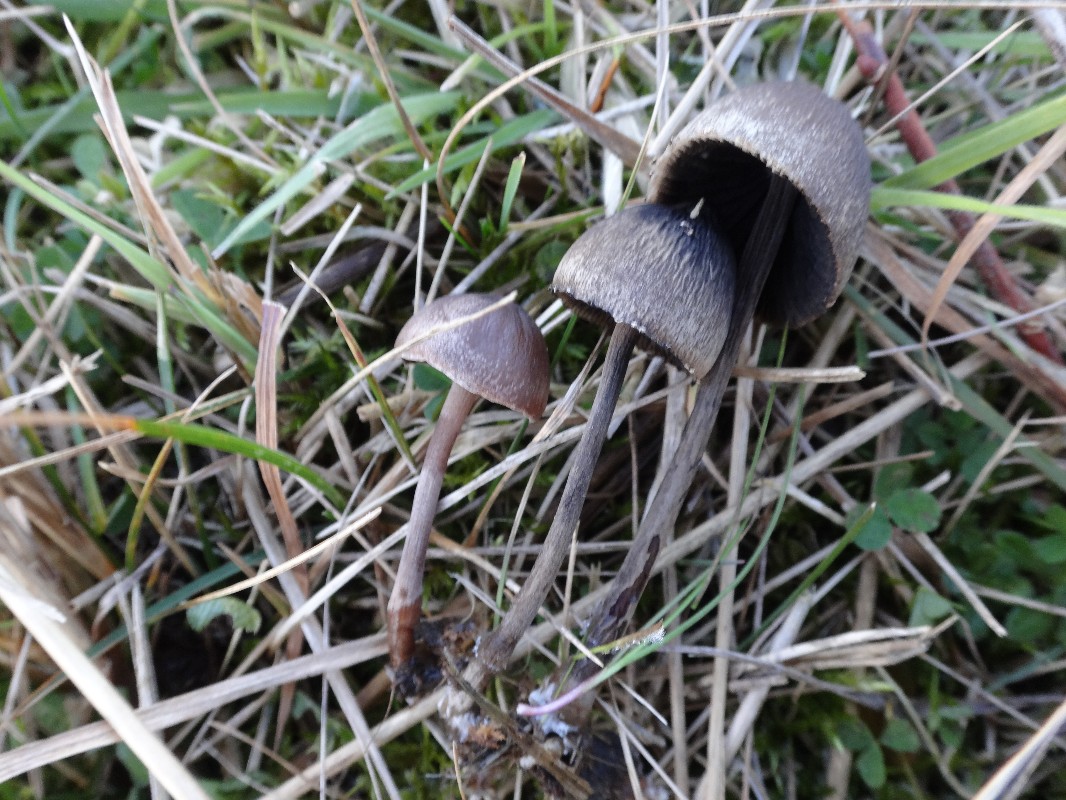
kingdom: Fungi
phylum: Basidiomycota
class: Agaricomycetes
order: Agaricales
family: Bolbitiaceae
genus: Panaeolus
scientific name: Panaeolus papilionaceus
